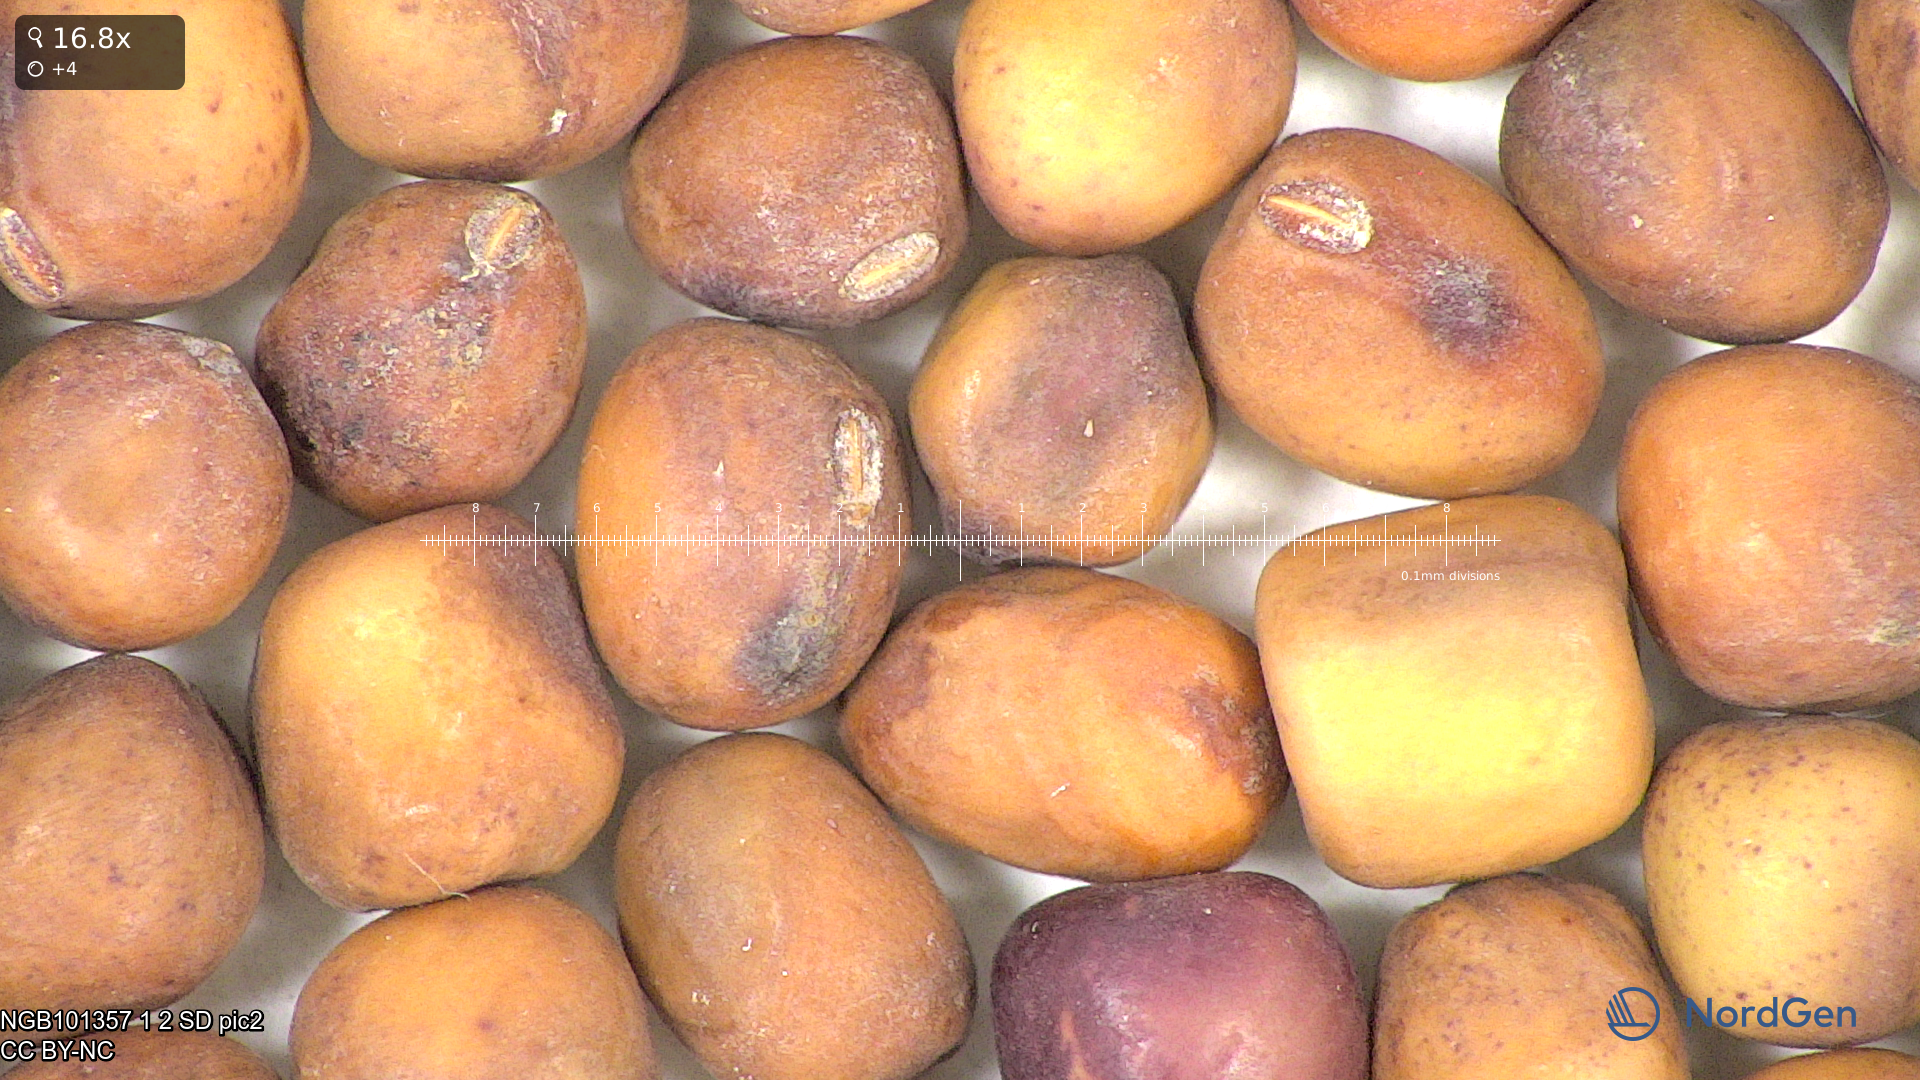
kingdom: Plantae
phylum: Tracheophyta
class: Magnoliopsida
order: Fabales
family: Fabaceae
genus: Lathyrus
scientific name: Lathyrus oleraceus
